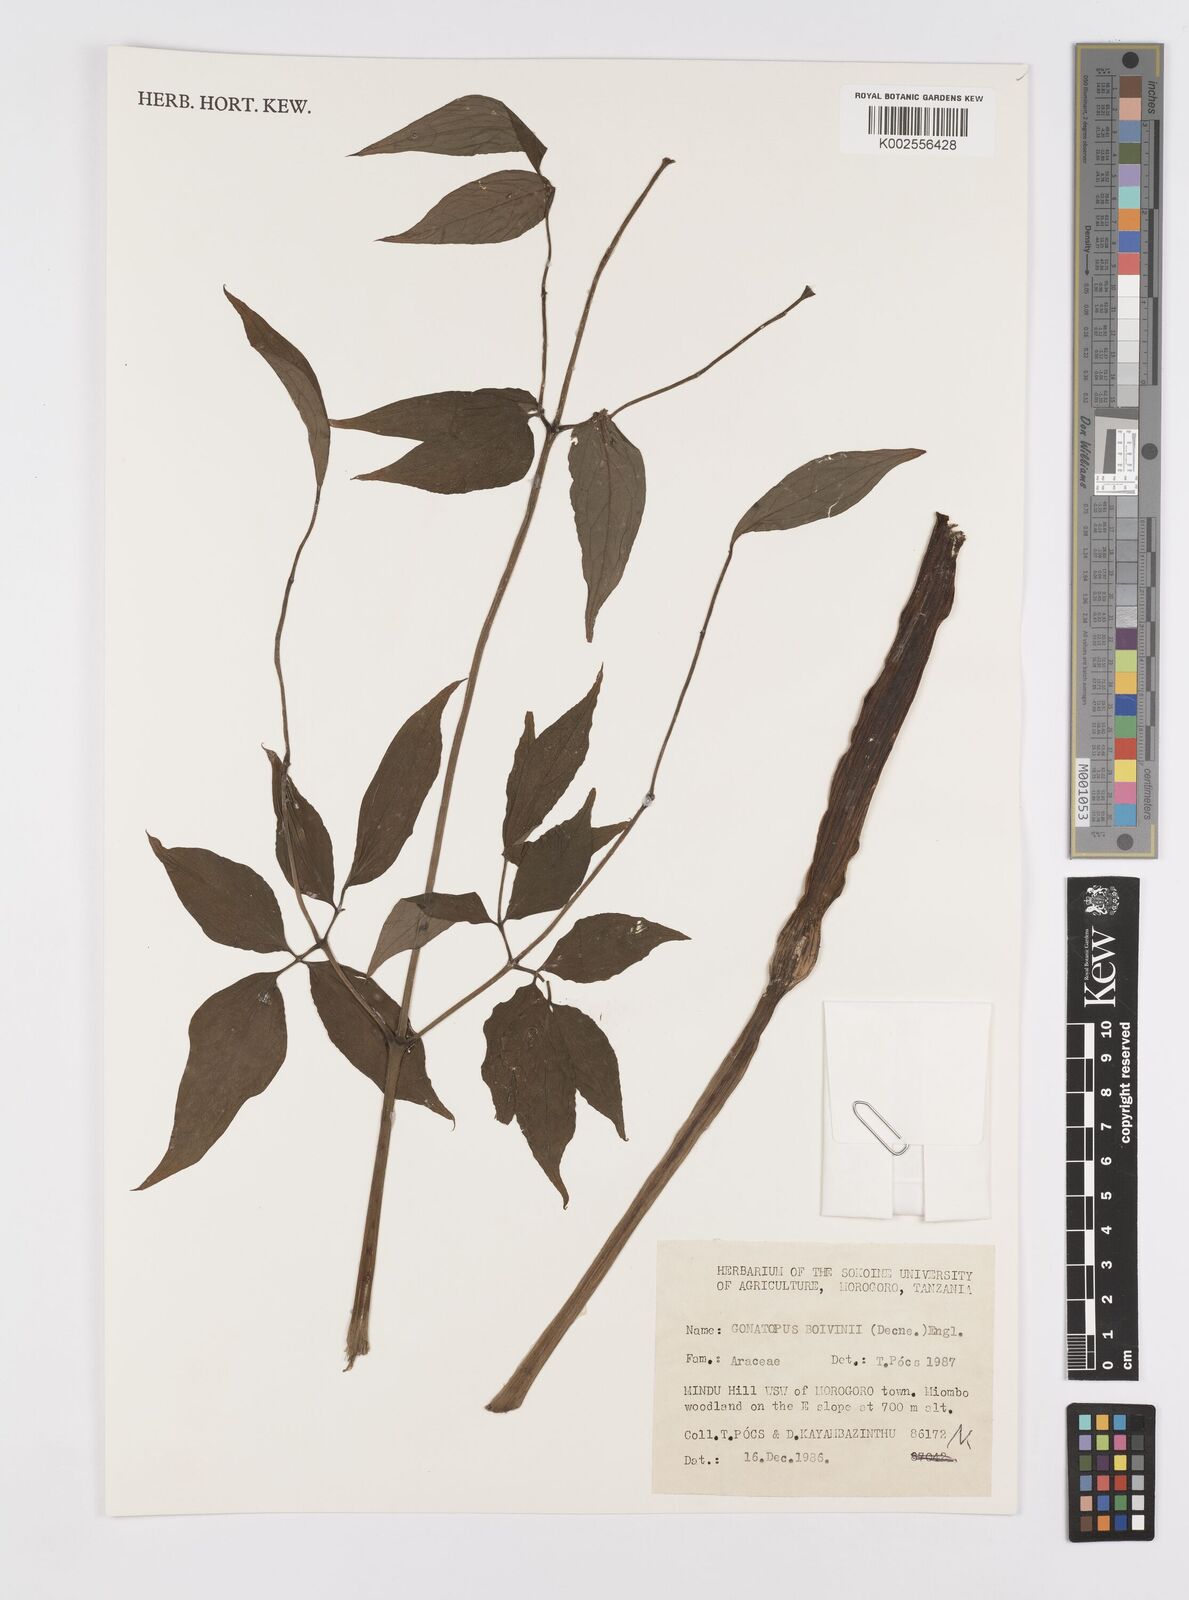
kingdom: Plantae
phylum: Tracheophyta
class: Liliopsida
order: Alismatales
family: Araceae
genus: Gonatopus
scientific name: Gonatopus boivinii
